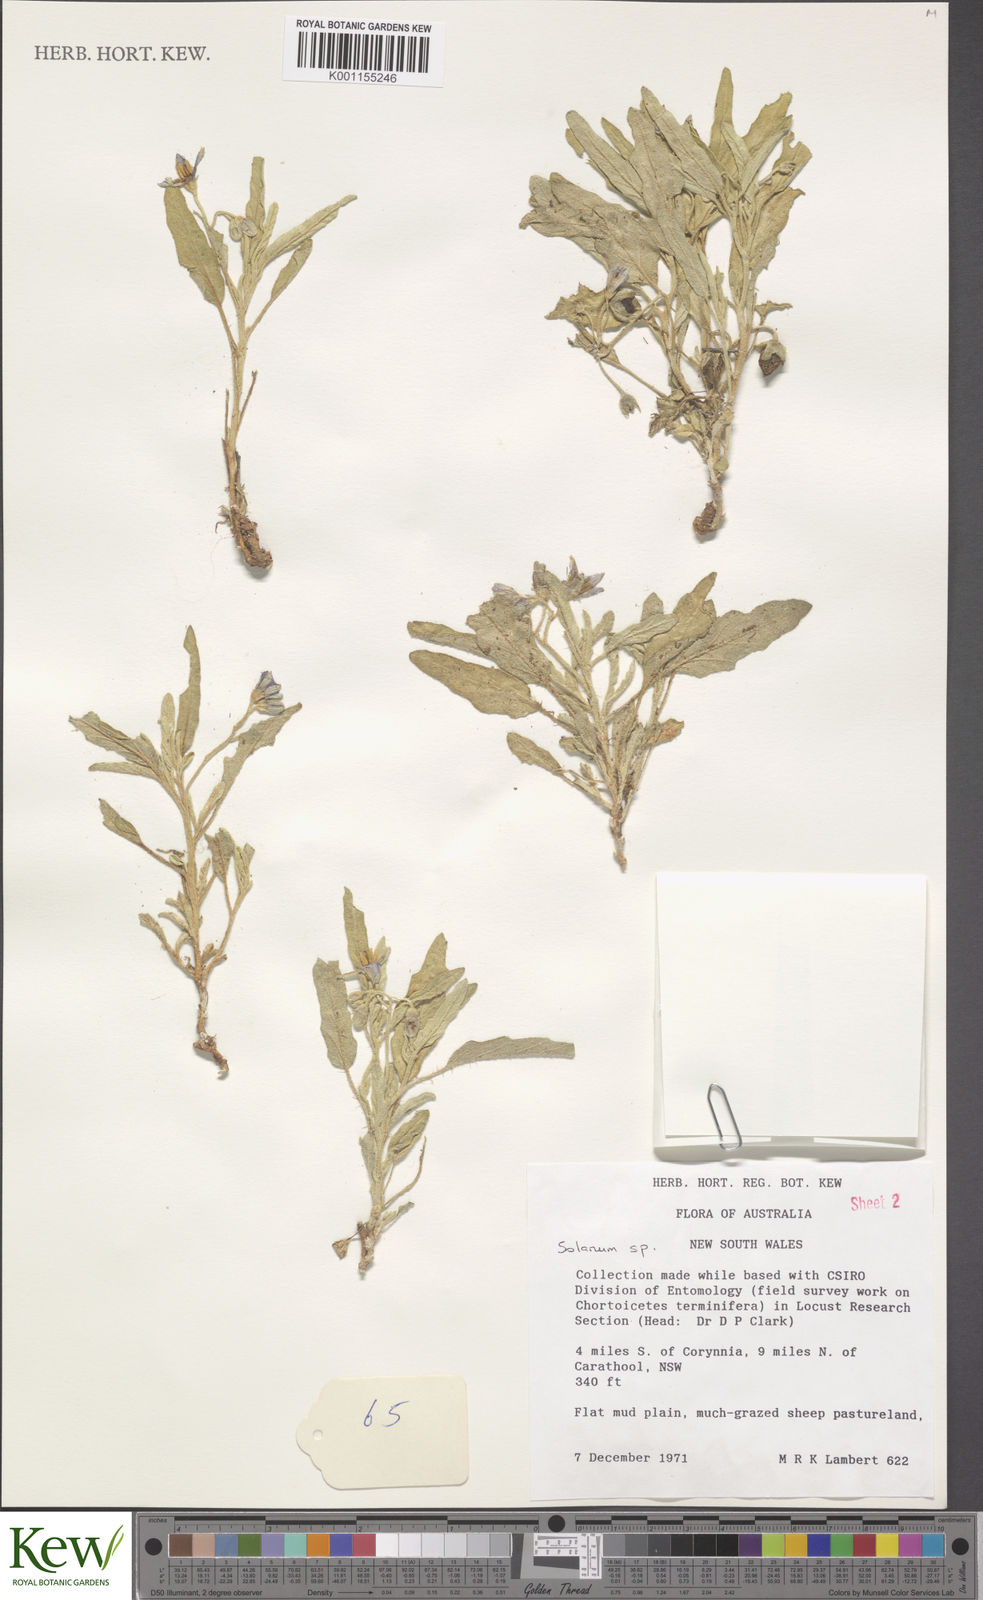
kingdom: Plantae
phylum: Tracheophyta
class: Magnoliopsida
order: Solanales
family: Solanaceae
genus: Solanum
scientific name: Solanum
